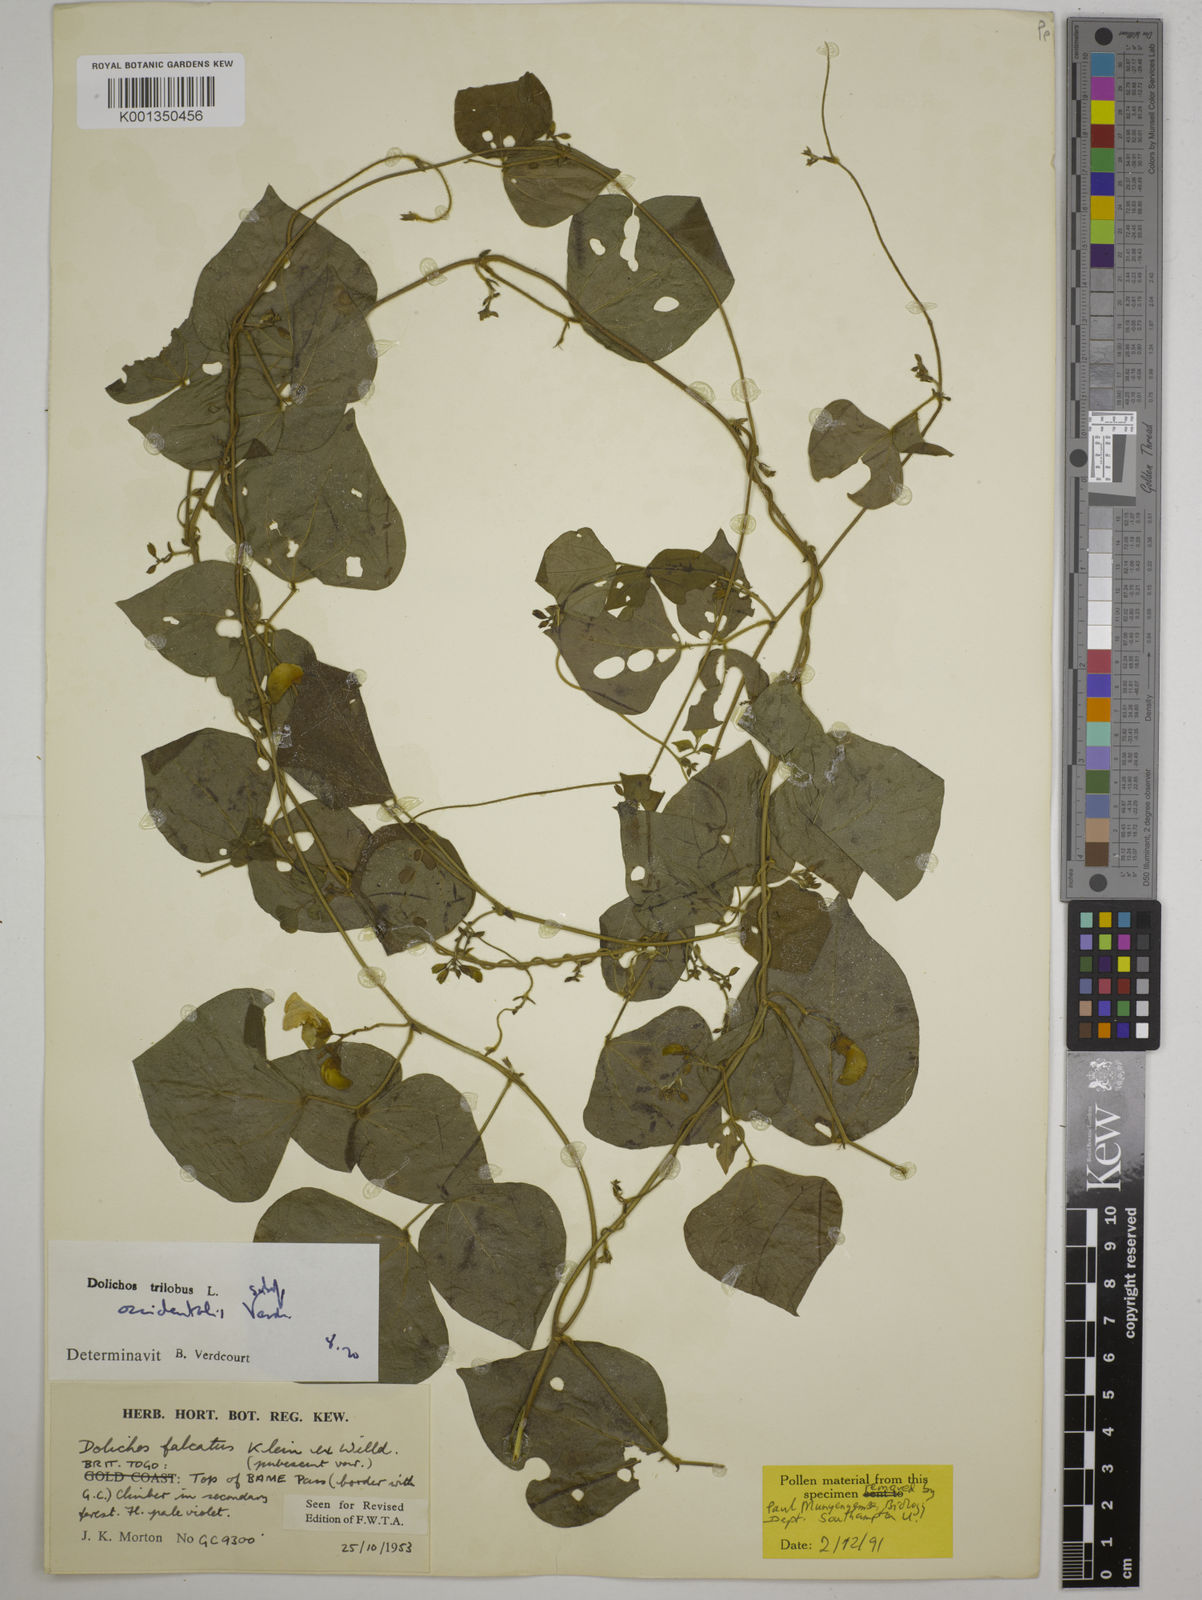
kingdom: Plantae
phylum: Tracheophyta
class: Magnoliopsida
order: Fabales
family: Fabaceae
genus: Dolichos
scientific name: Dolichos
